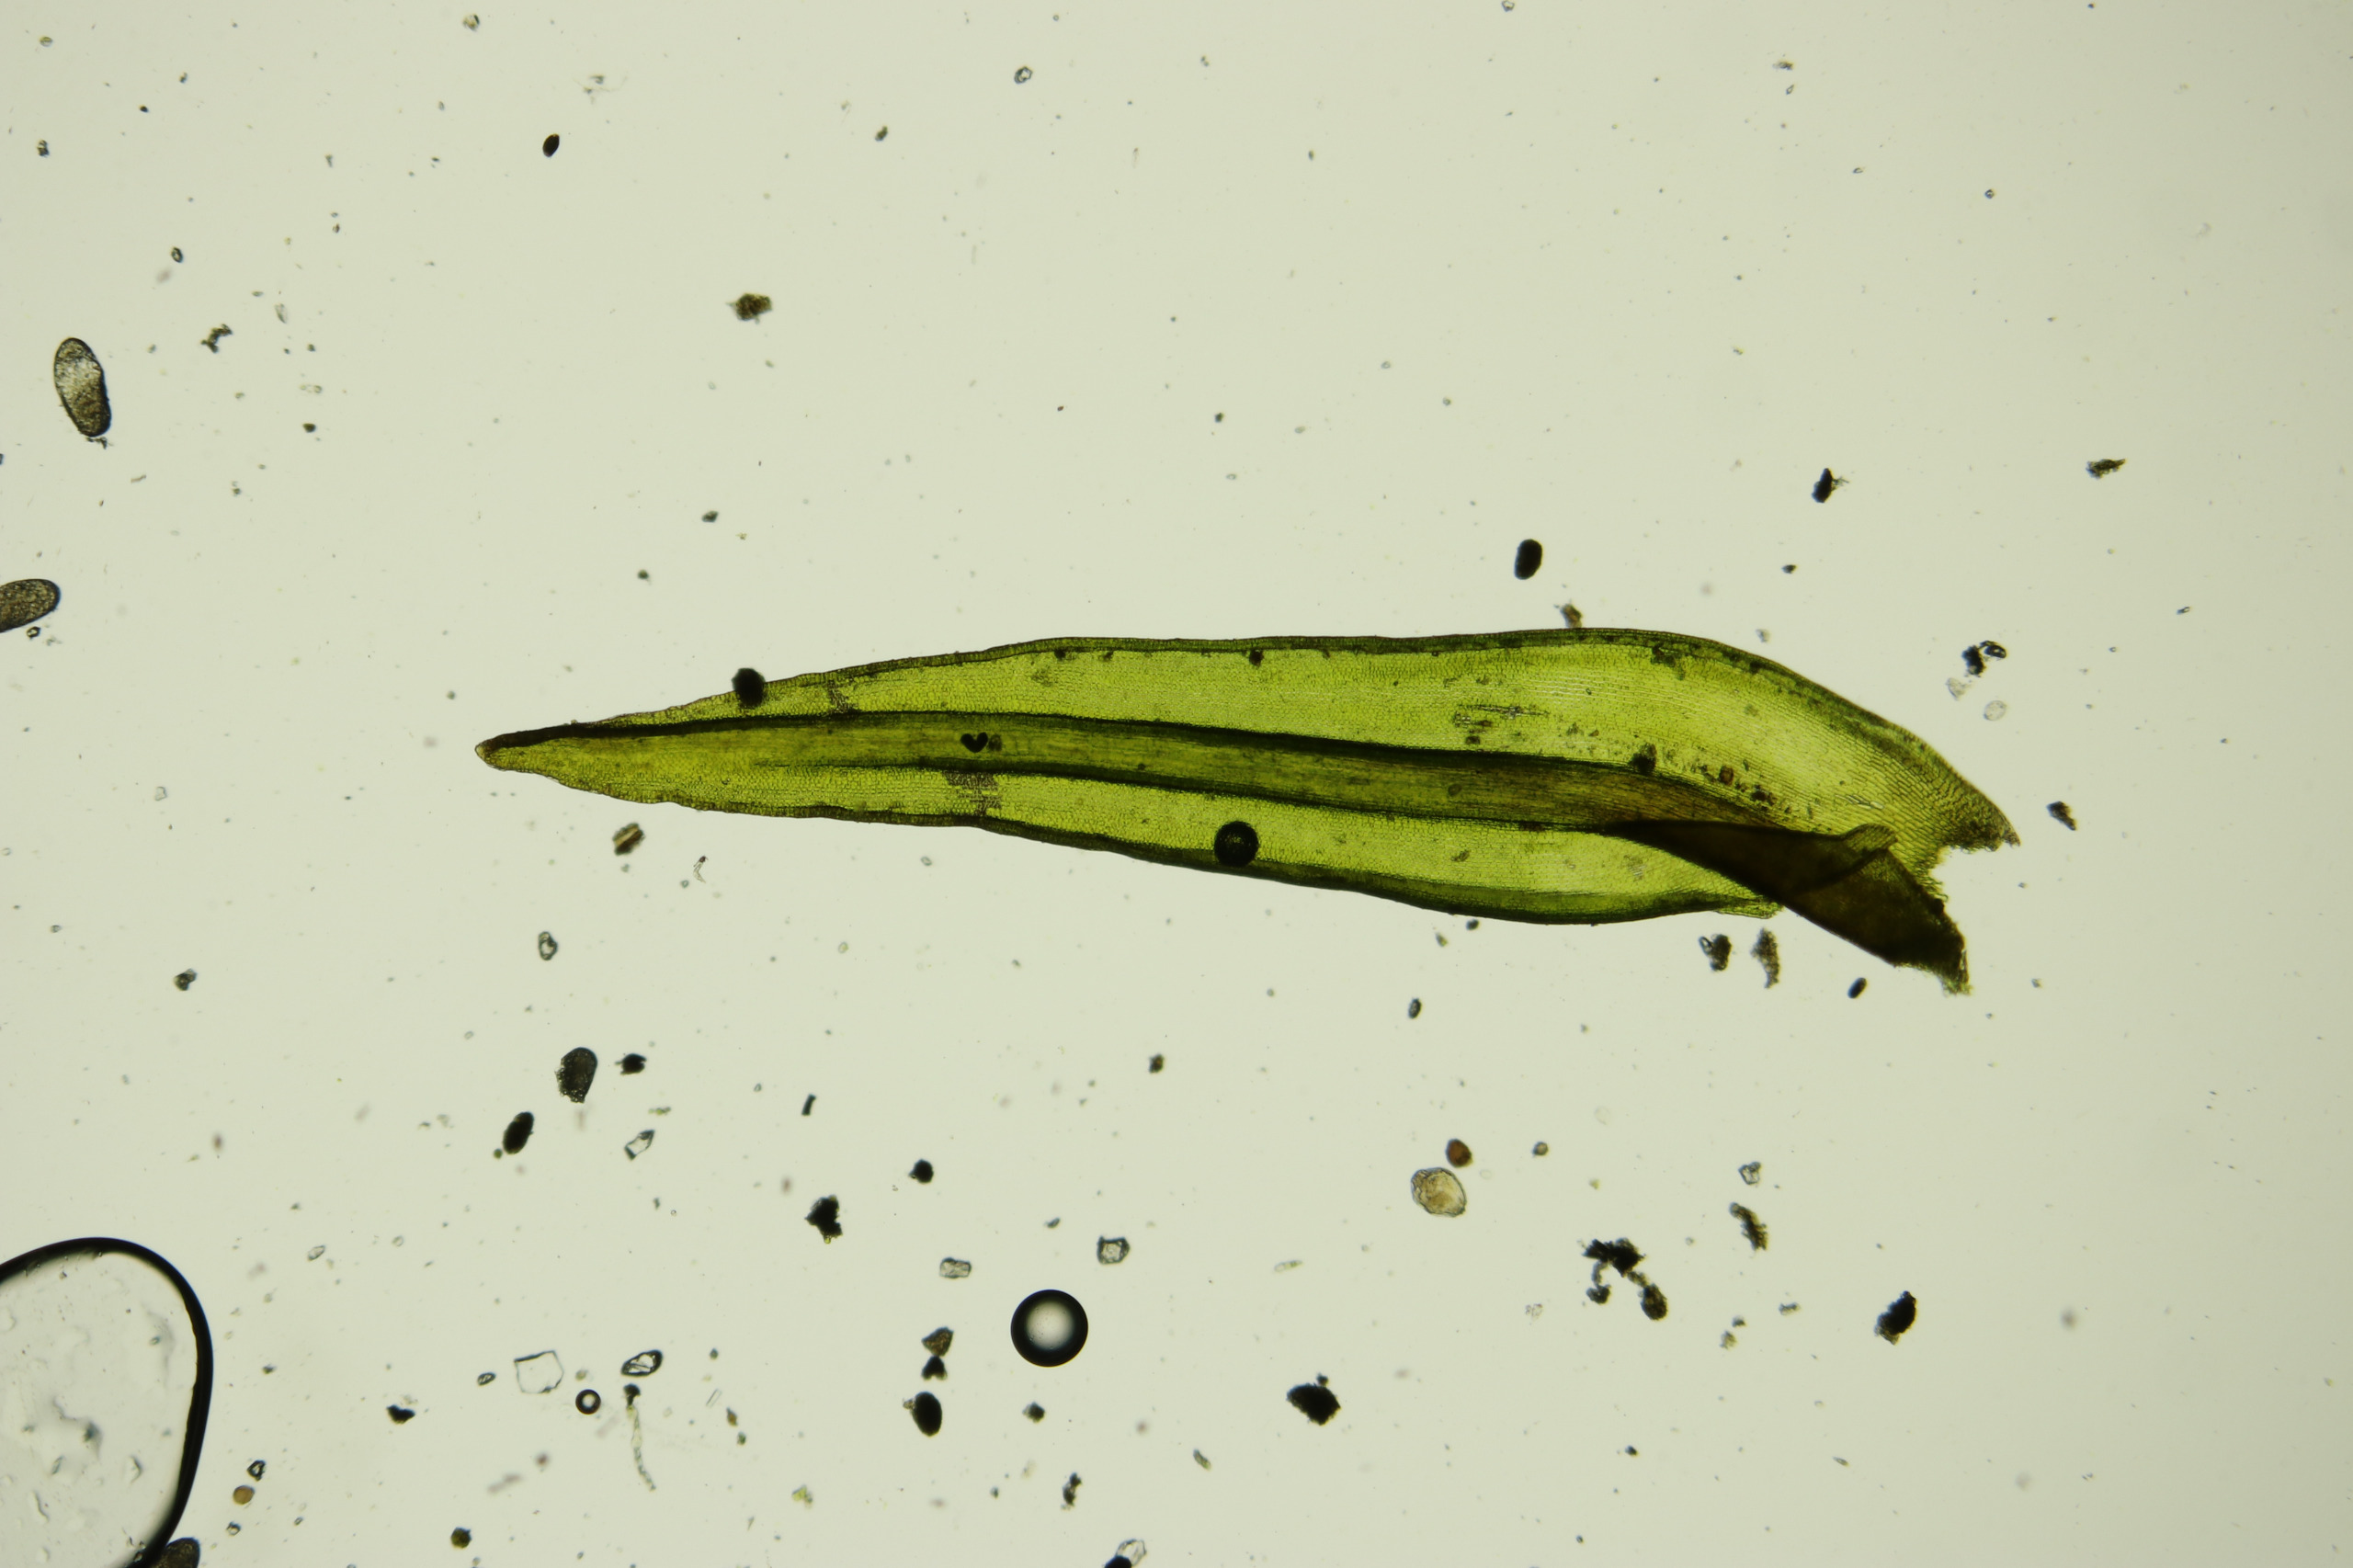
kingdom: Plantae
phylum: Bryophyta
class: Bryopsida
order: Grimmiales
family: Grimmiaceae
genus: Bucklandiella
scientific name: Bucklandiella obtusa
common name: Kyst-børstemos
